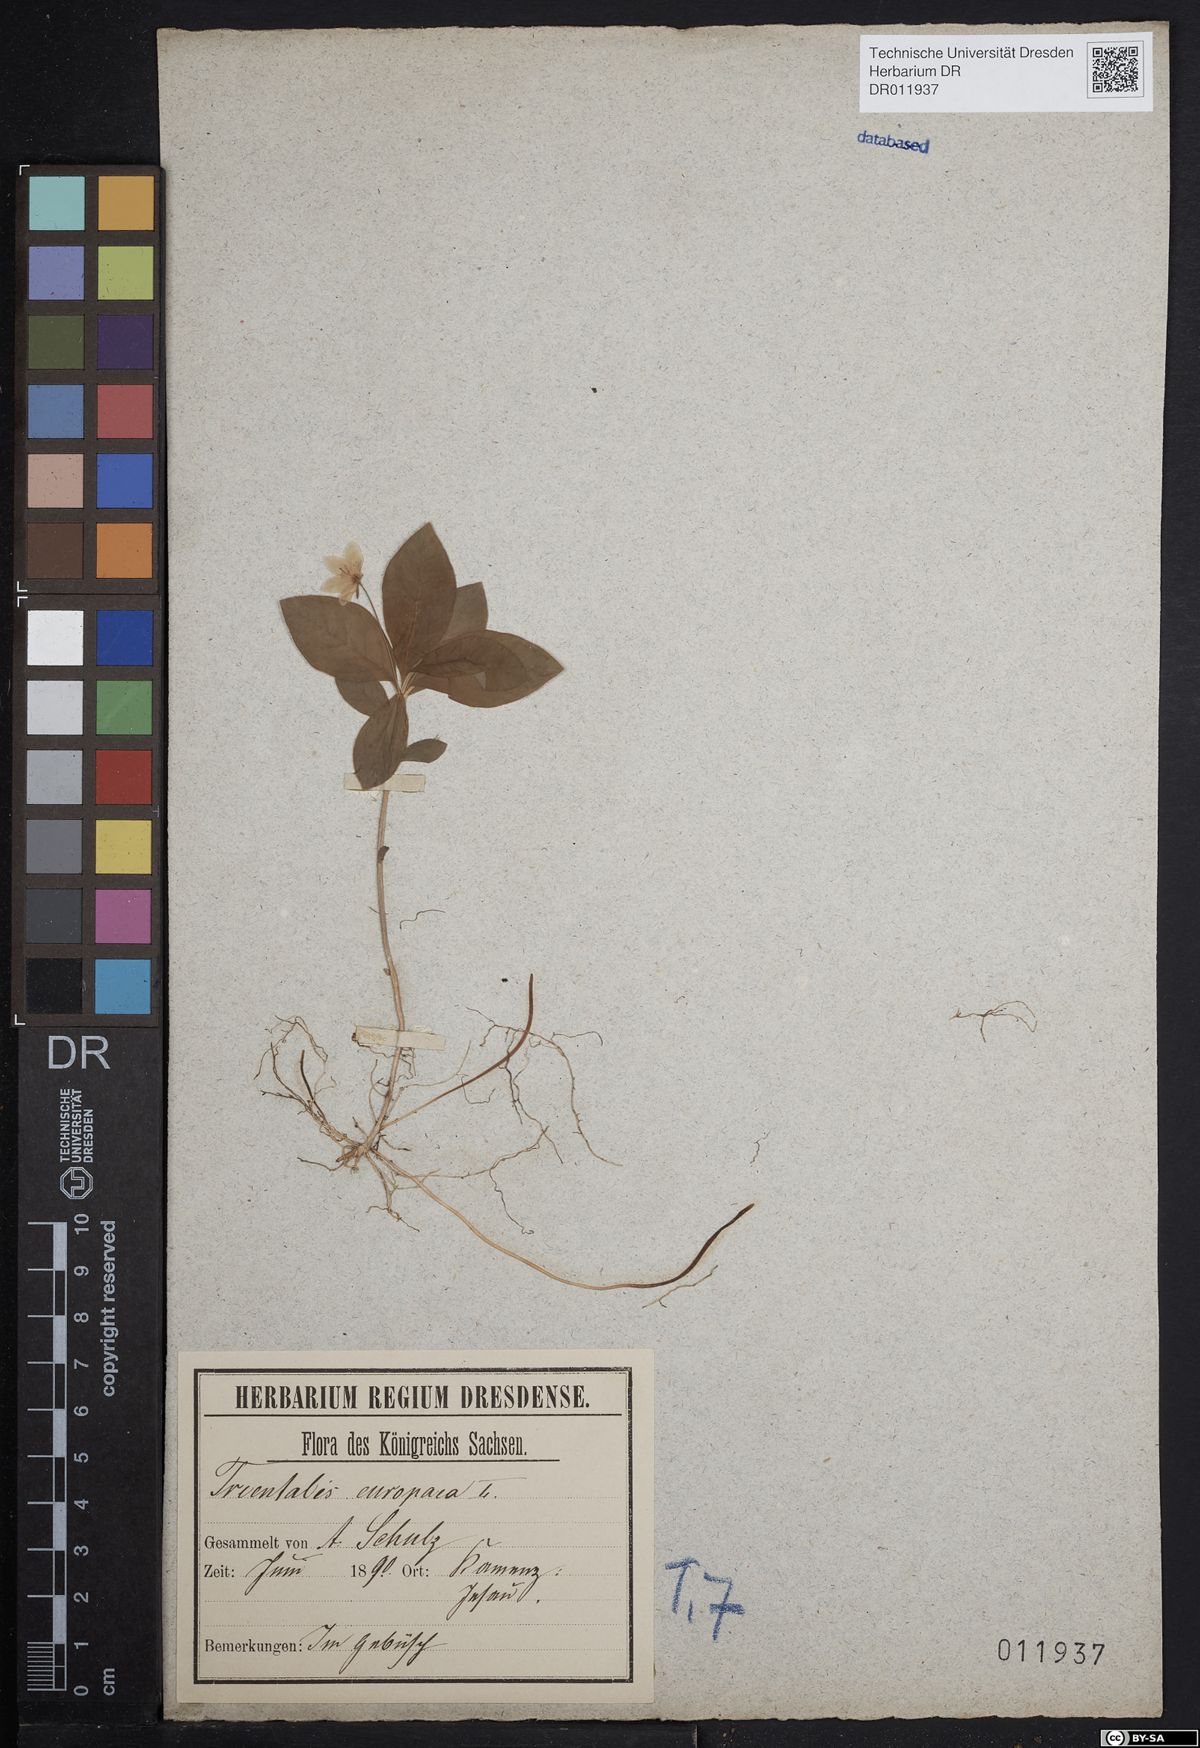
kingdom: Plantae
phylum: Tracheophyta
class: Magnoliopsida
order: Ericales
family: Primulaceae
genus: Lysimachia
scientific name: Lysimachia europaea
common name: Arctic starflower
